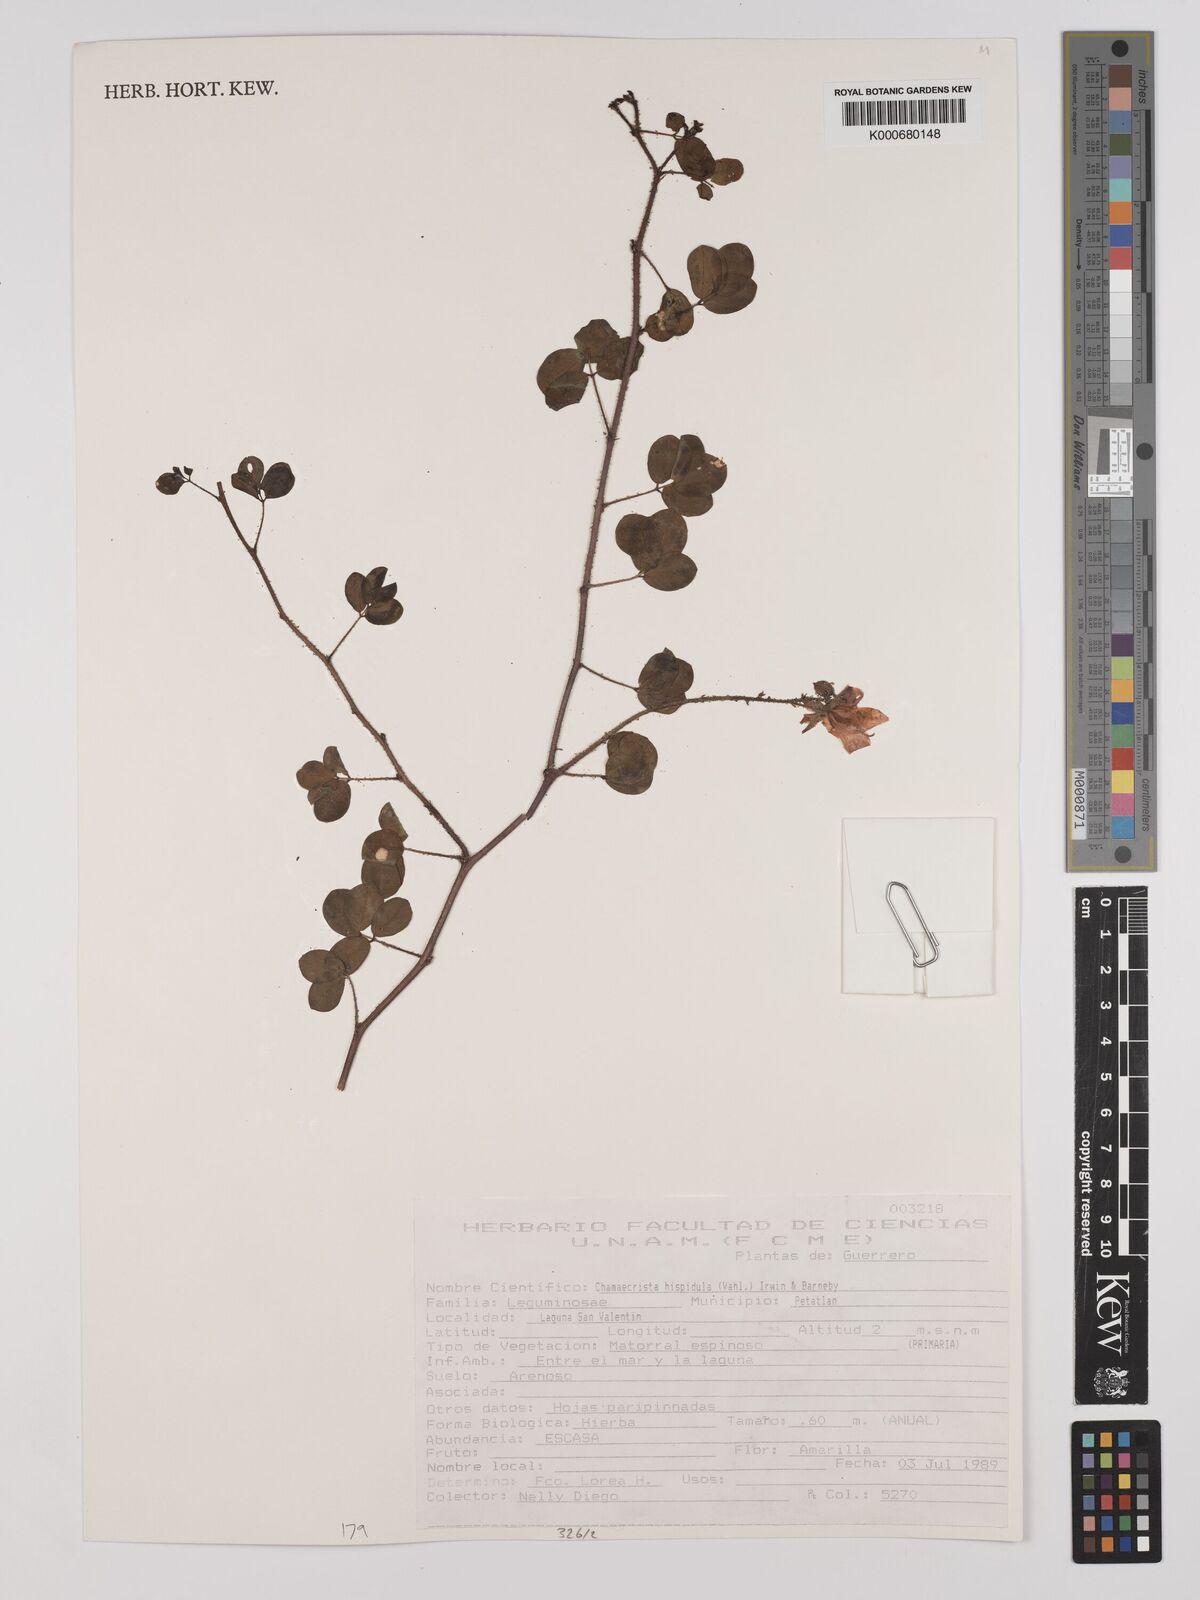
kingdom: Plantae
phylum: Tracheophyta
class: Magnoliopsida
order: Fabales
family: Fabaceae
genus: Chamaecrista
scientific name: Chamaecrista hispidula
